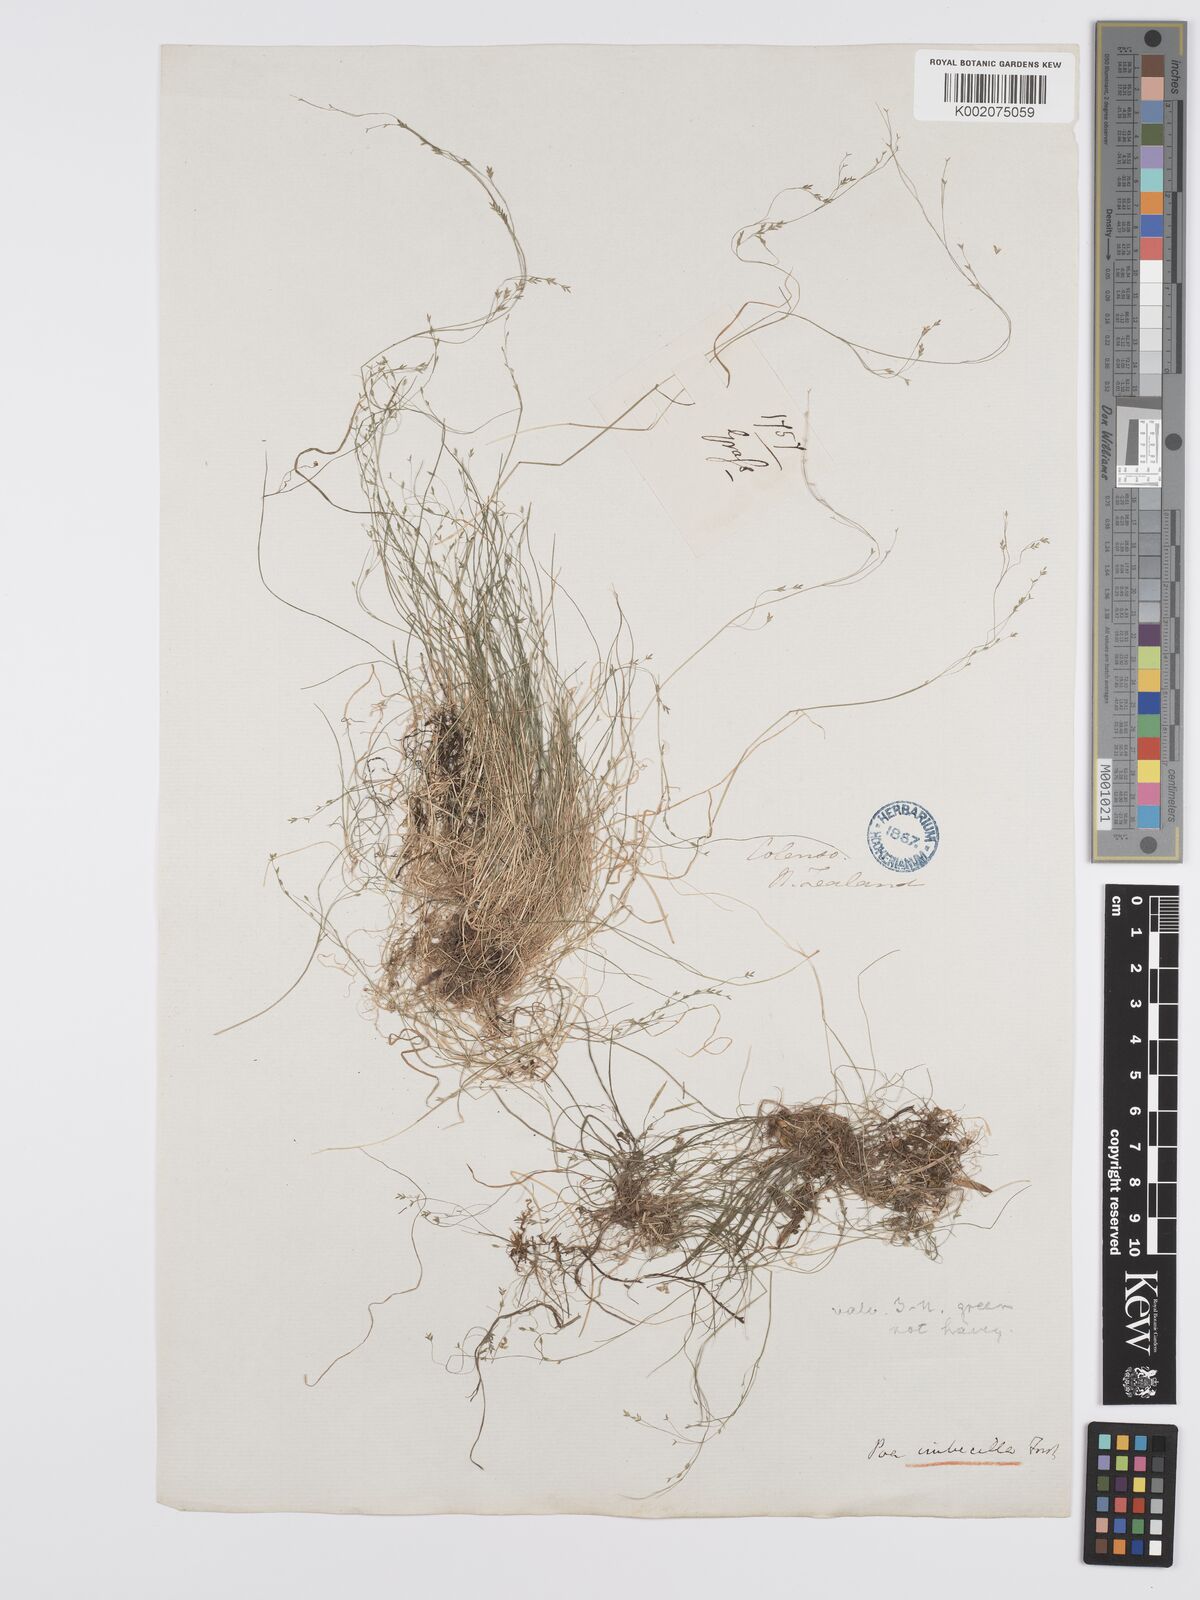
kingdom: Plantae
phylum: Tracheophyta
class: Liliopsida
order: Poales
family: Poaceae
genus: Poa
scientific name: Poa imbecilla
